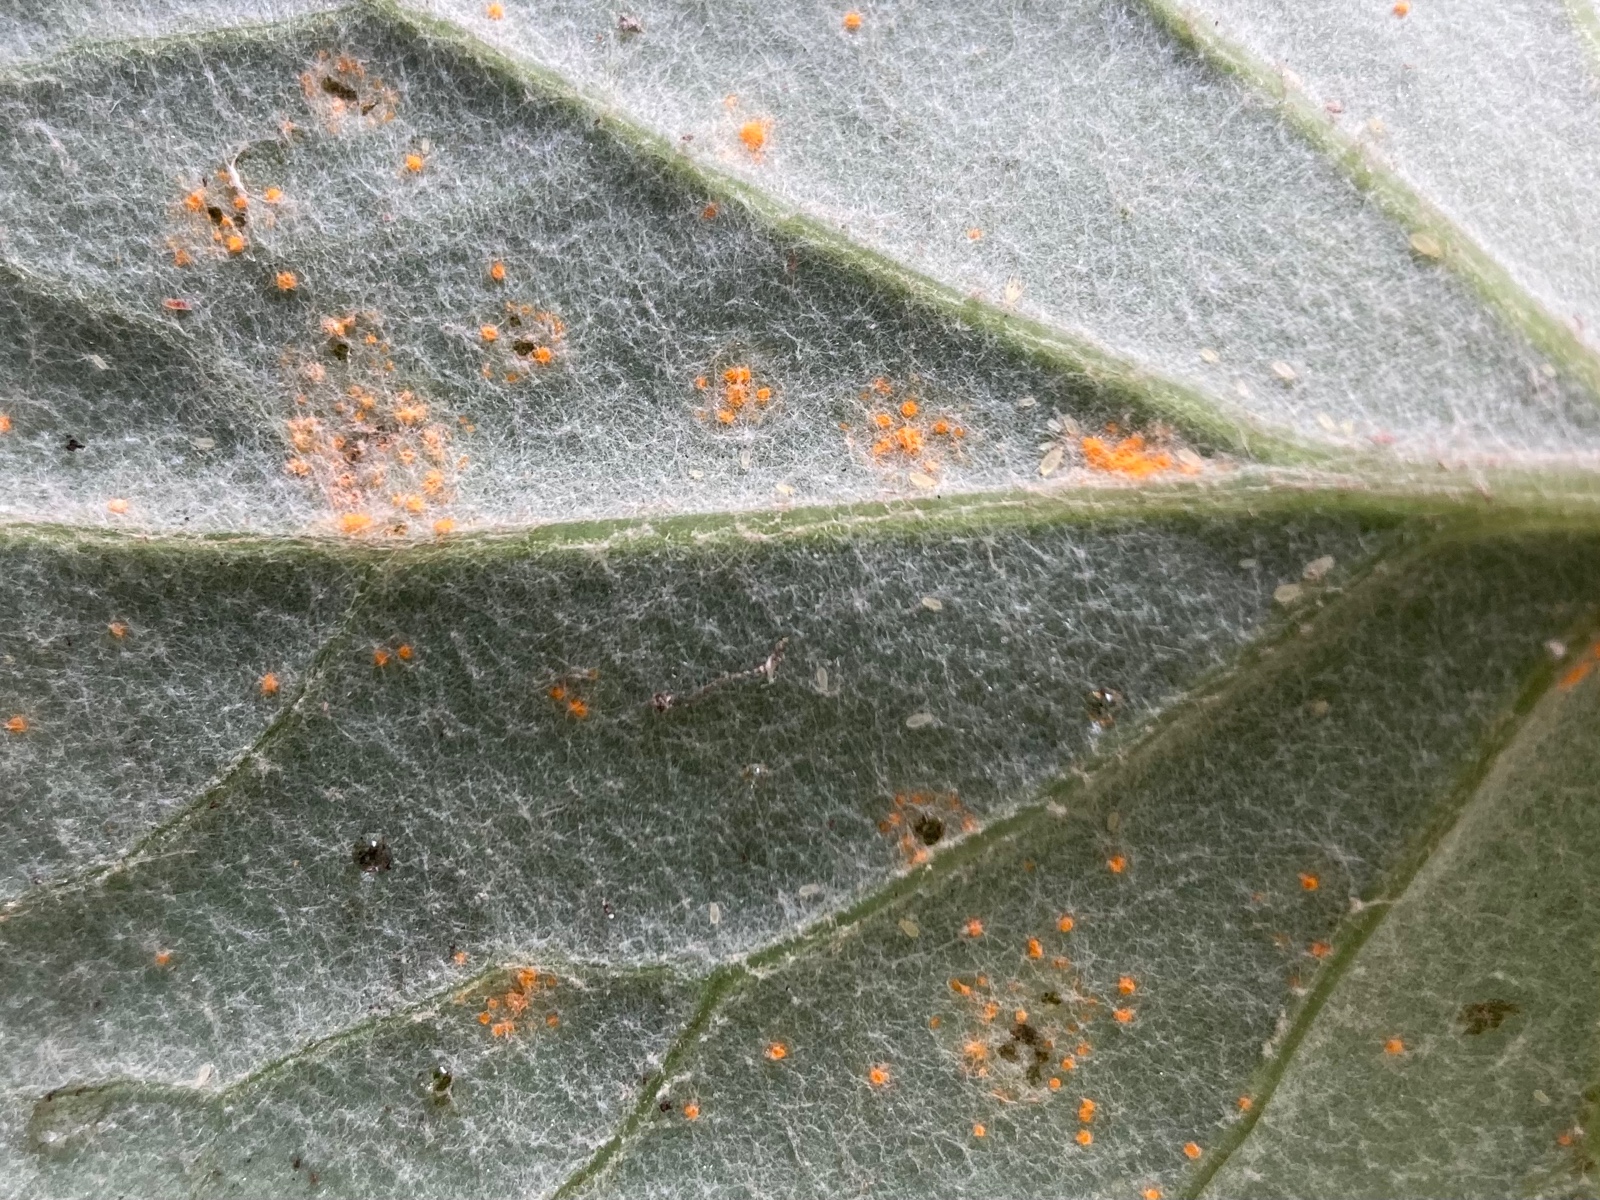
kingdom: Fungi
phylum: Basidiomycota
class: Pucciniomycetes
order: Pucciniales
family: Coleosporiaceae
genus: Coleosporium
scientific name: Coleosporium tussilaginis
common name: almindelig fyrrenålerust
